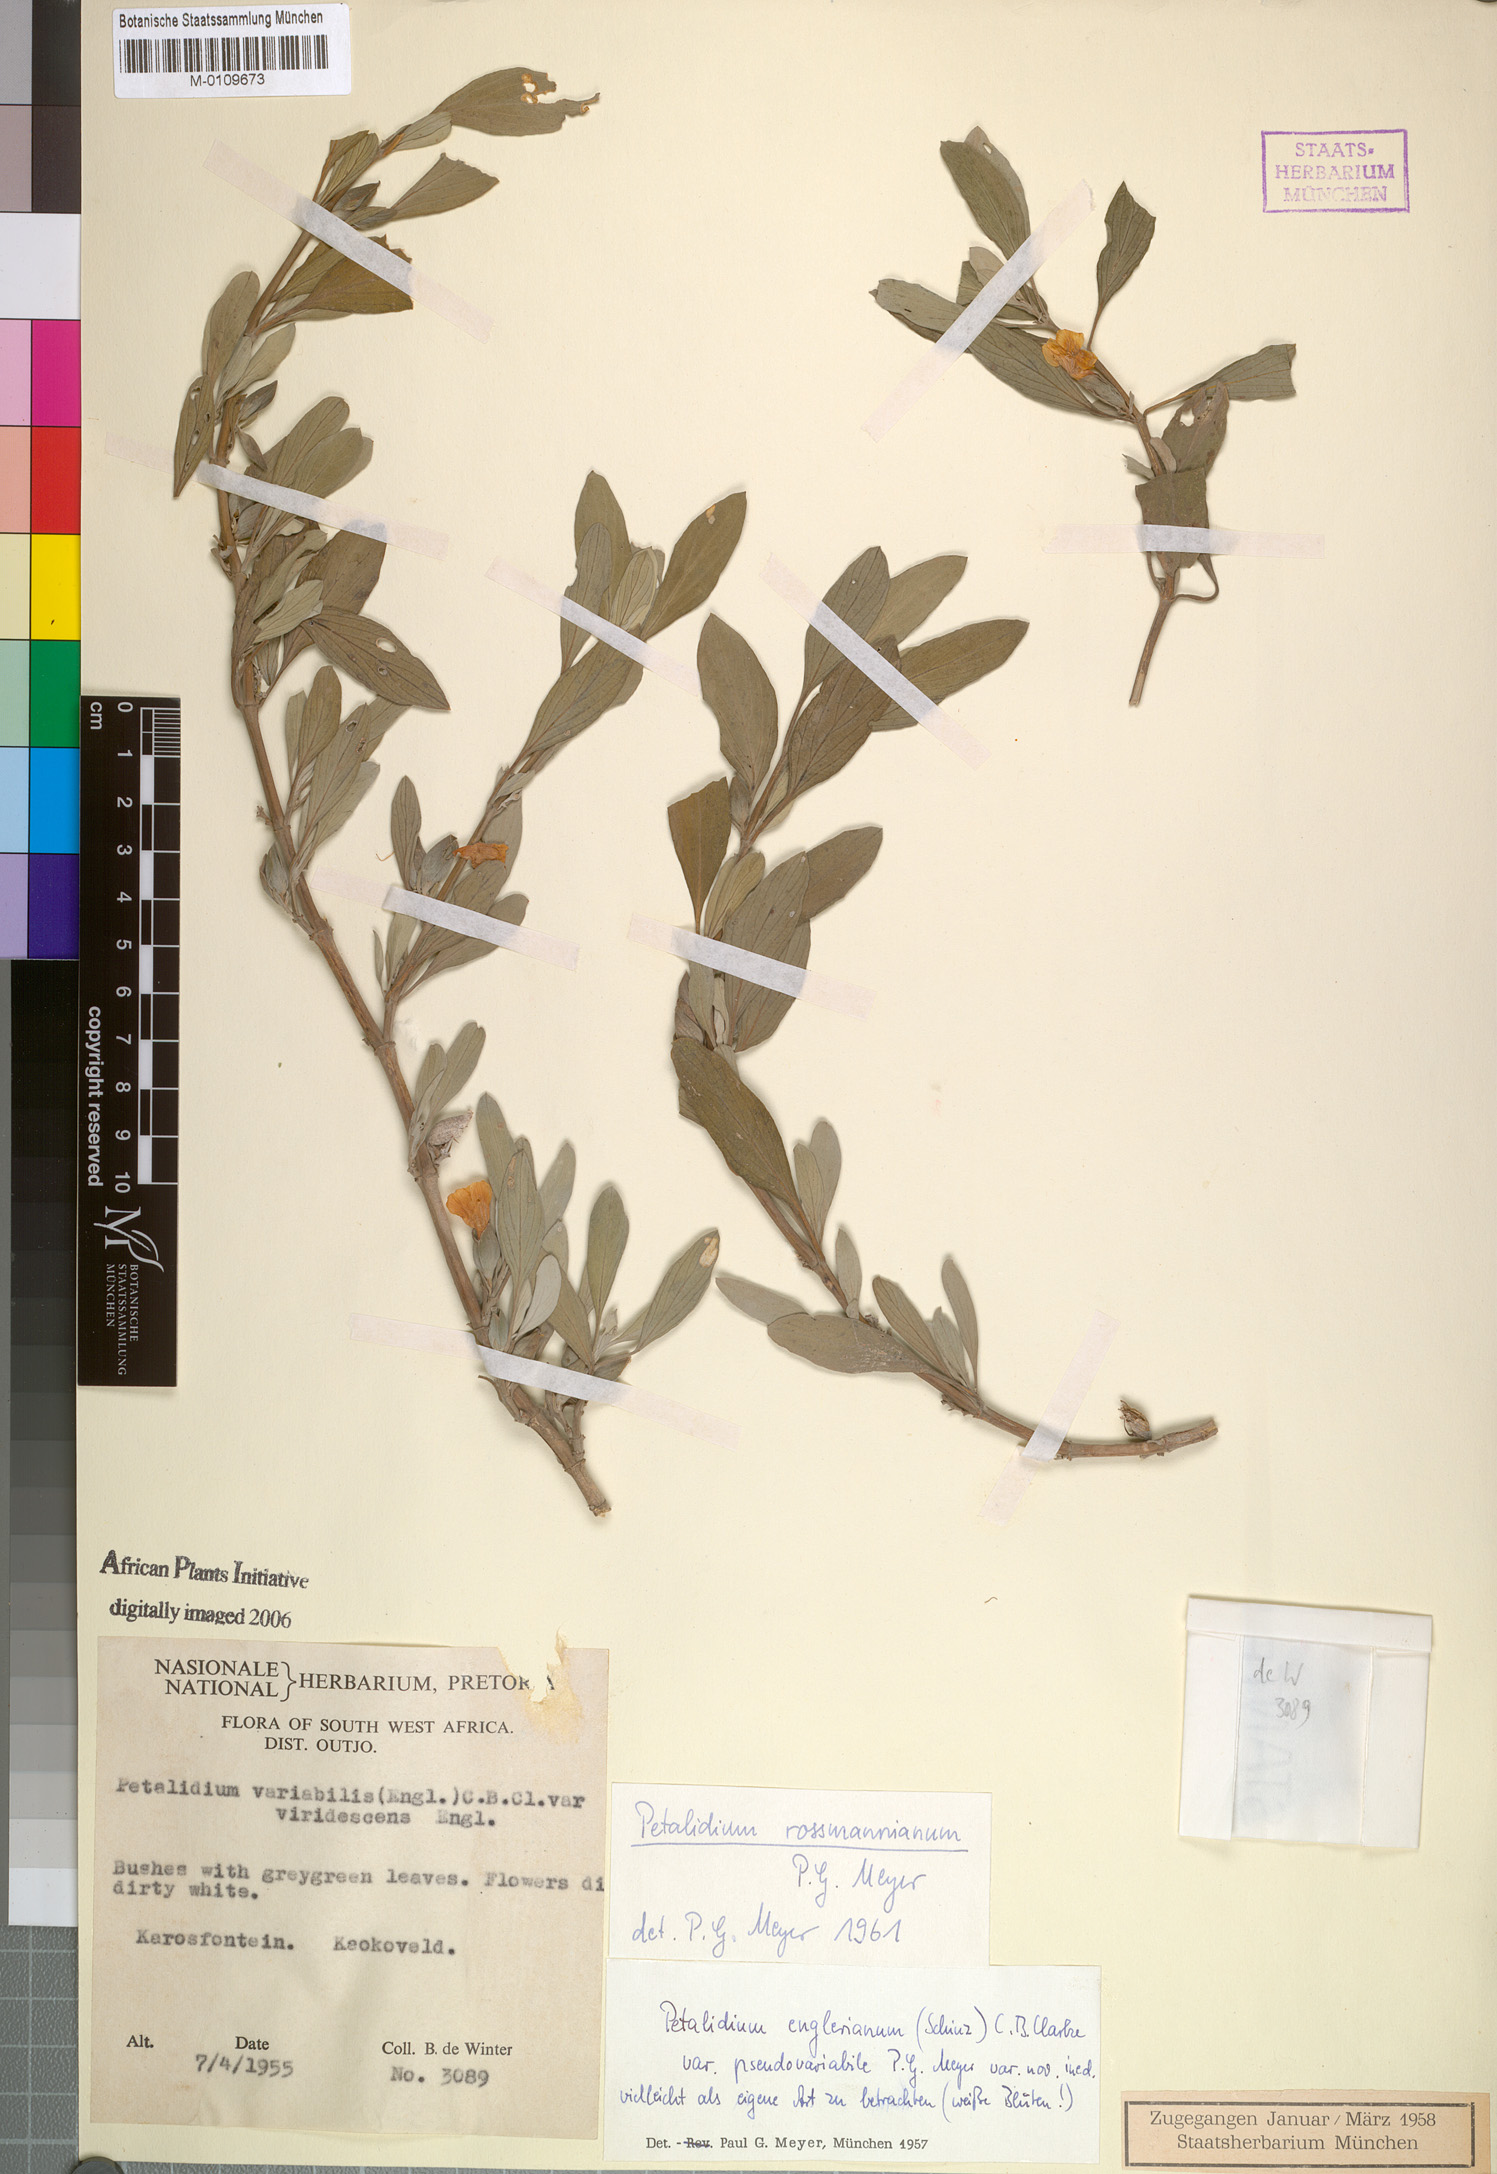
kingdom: Plantae
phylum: Tracheophyta
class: Magnoliopsida
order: Lamiales
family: Acanthaceae
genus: Petalidium
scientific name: Petalidium rossmannianum
